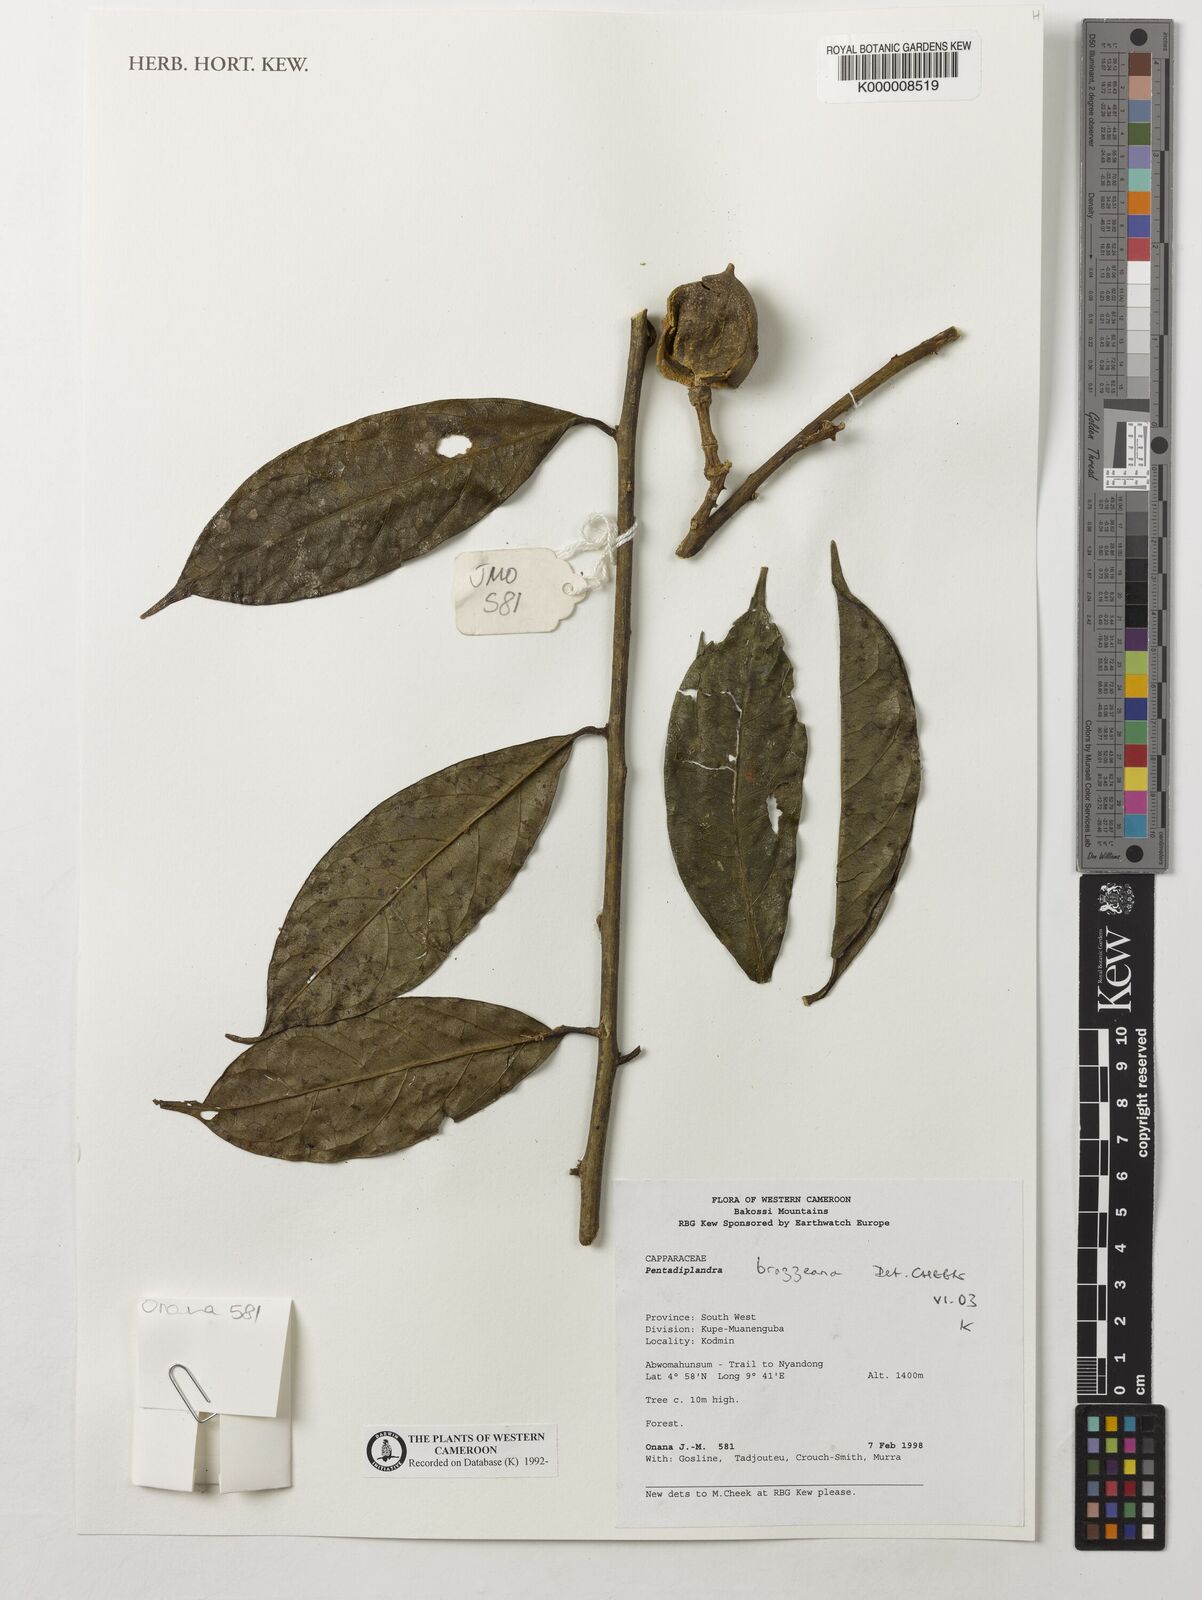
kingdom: Plantae
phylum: Tracheophyta
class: Magnoliopsida
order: Brassicales
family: Pentadiplandraceae
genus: Pentadiplandra
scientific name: Pentadiplandra brazzeana
